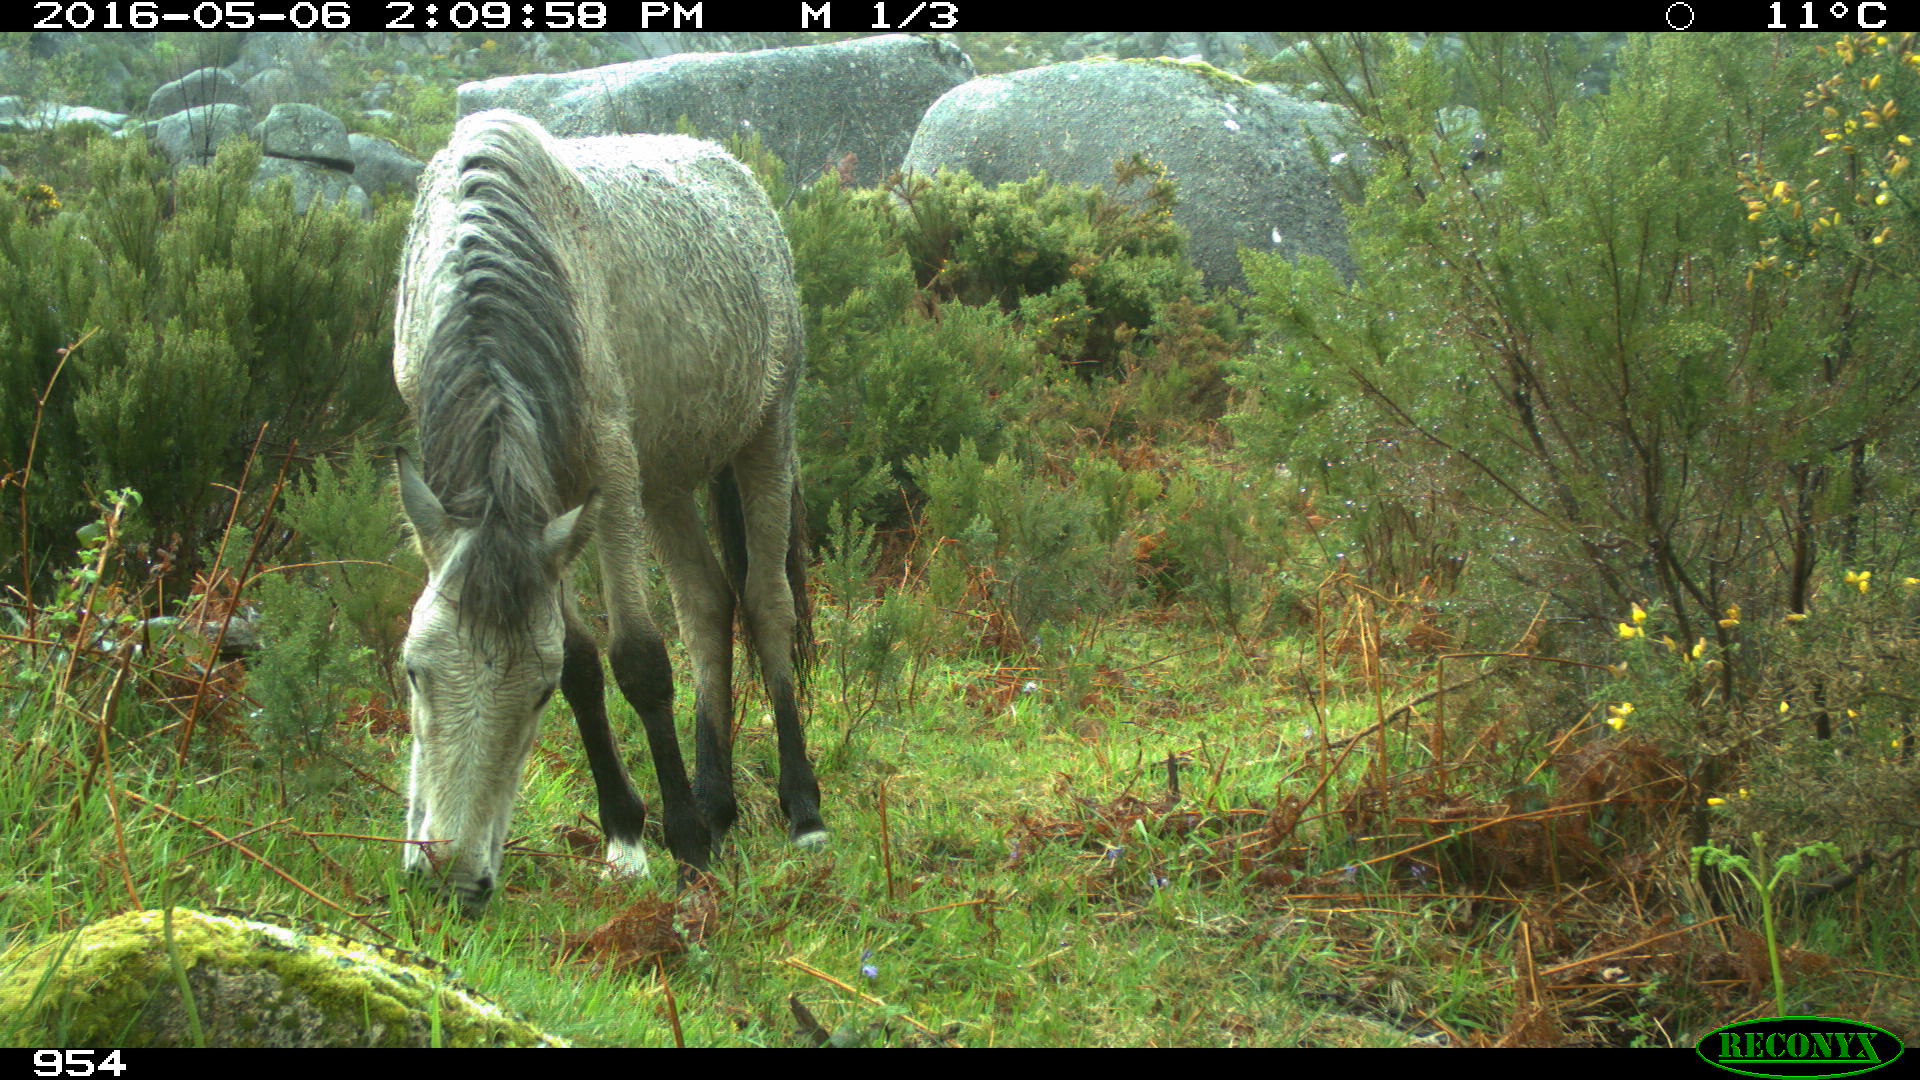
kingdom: Animalia
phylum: Chordata
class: Mammalia
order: Perissodactyla
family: Equidae
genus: Equus
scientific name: Equus caballus
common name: Horse
